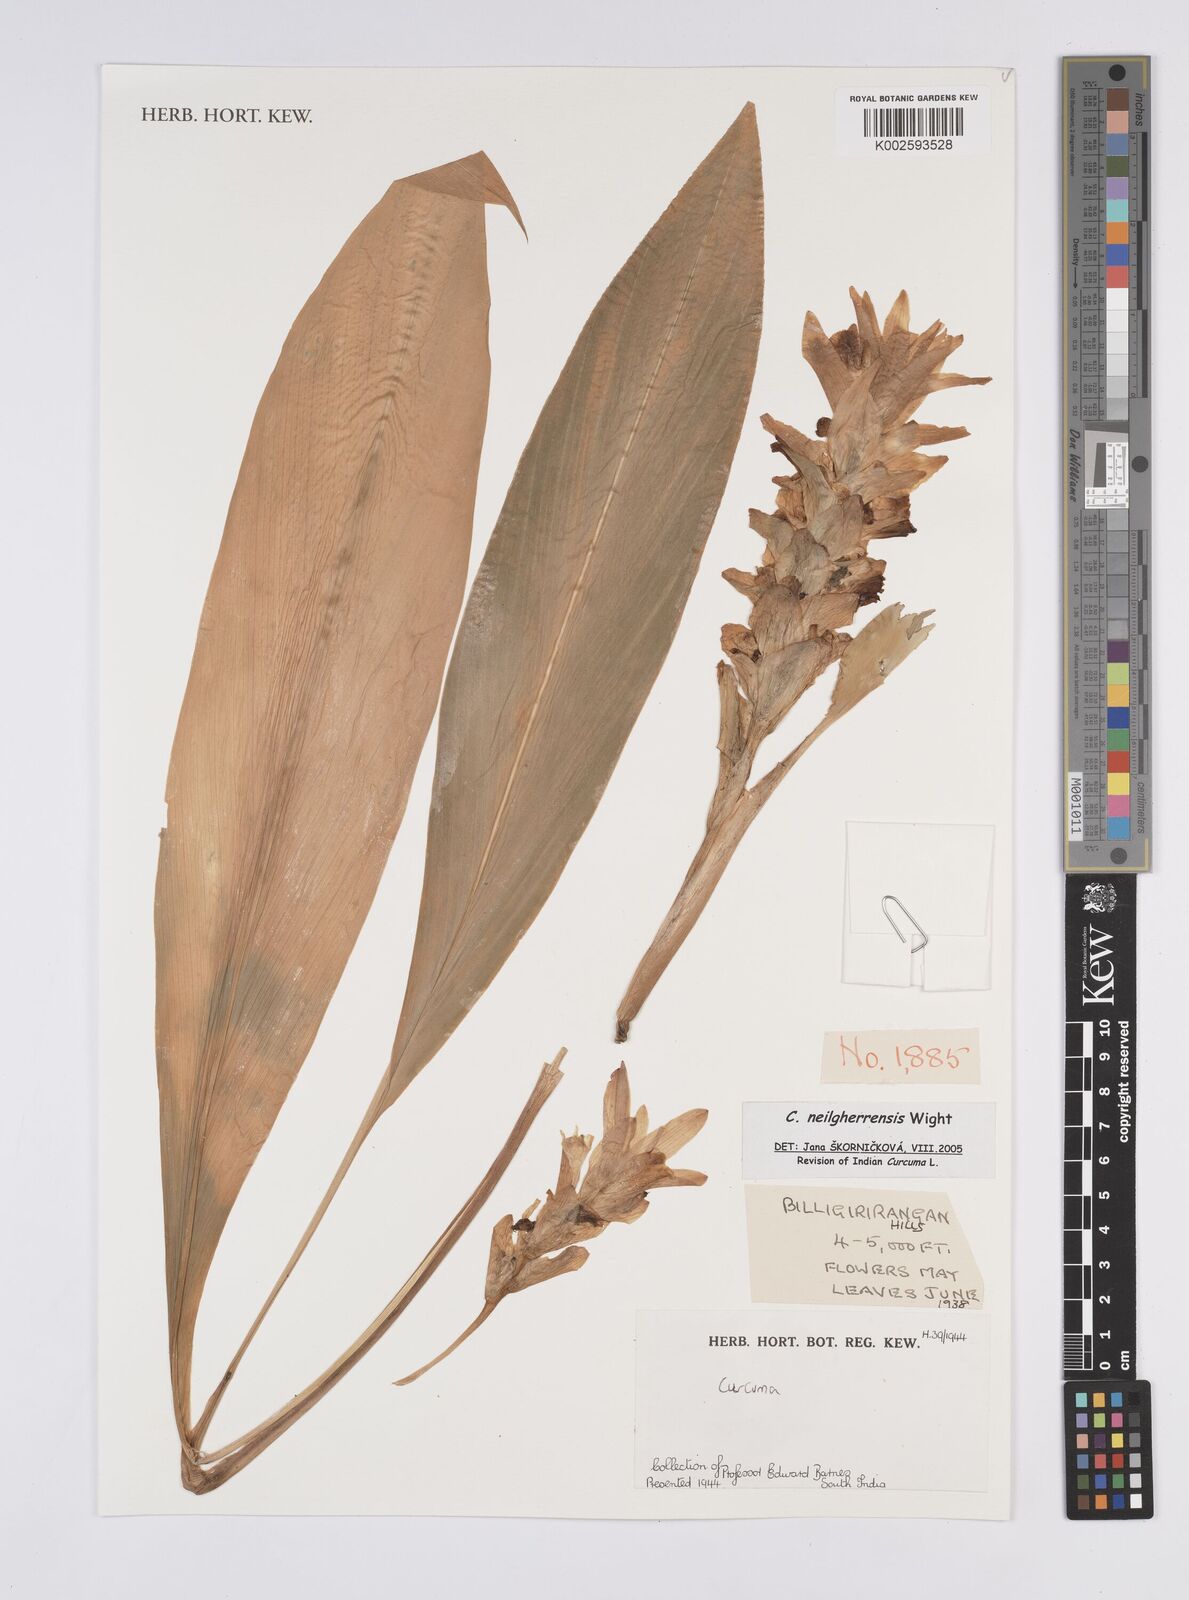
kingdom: Plantae
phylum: Tracheophyta
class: Liliopsida
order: Zingiberales
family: Zingiberaceae
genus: Curcuma
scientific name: Curcuma neilgherrensis
